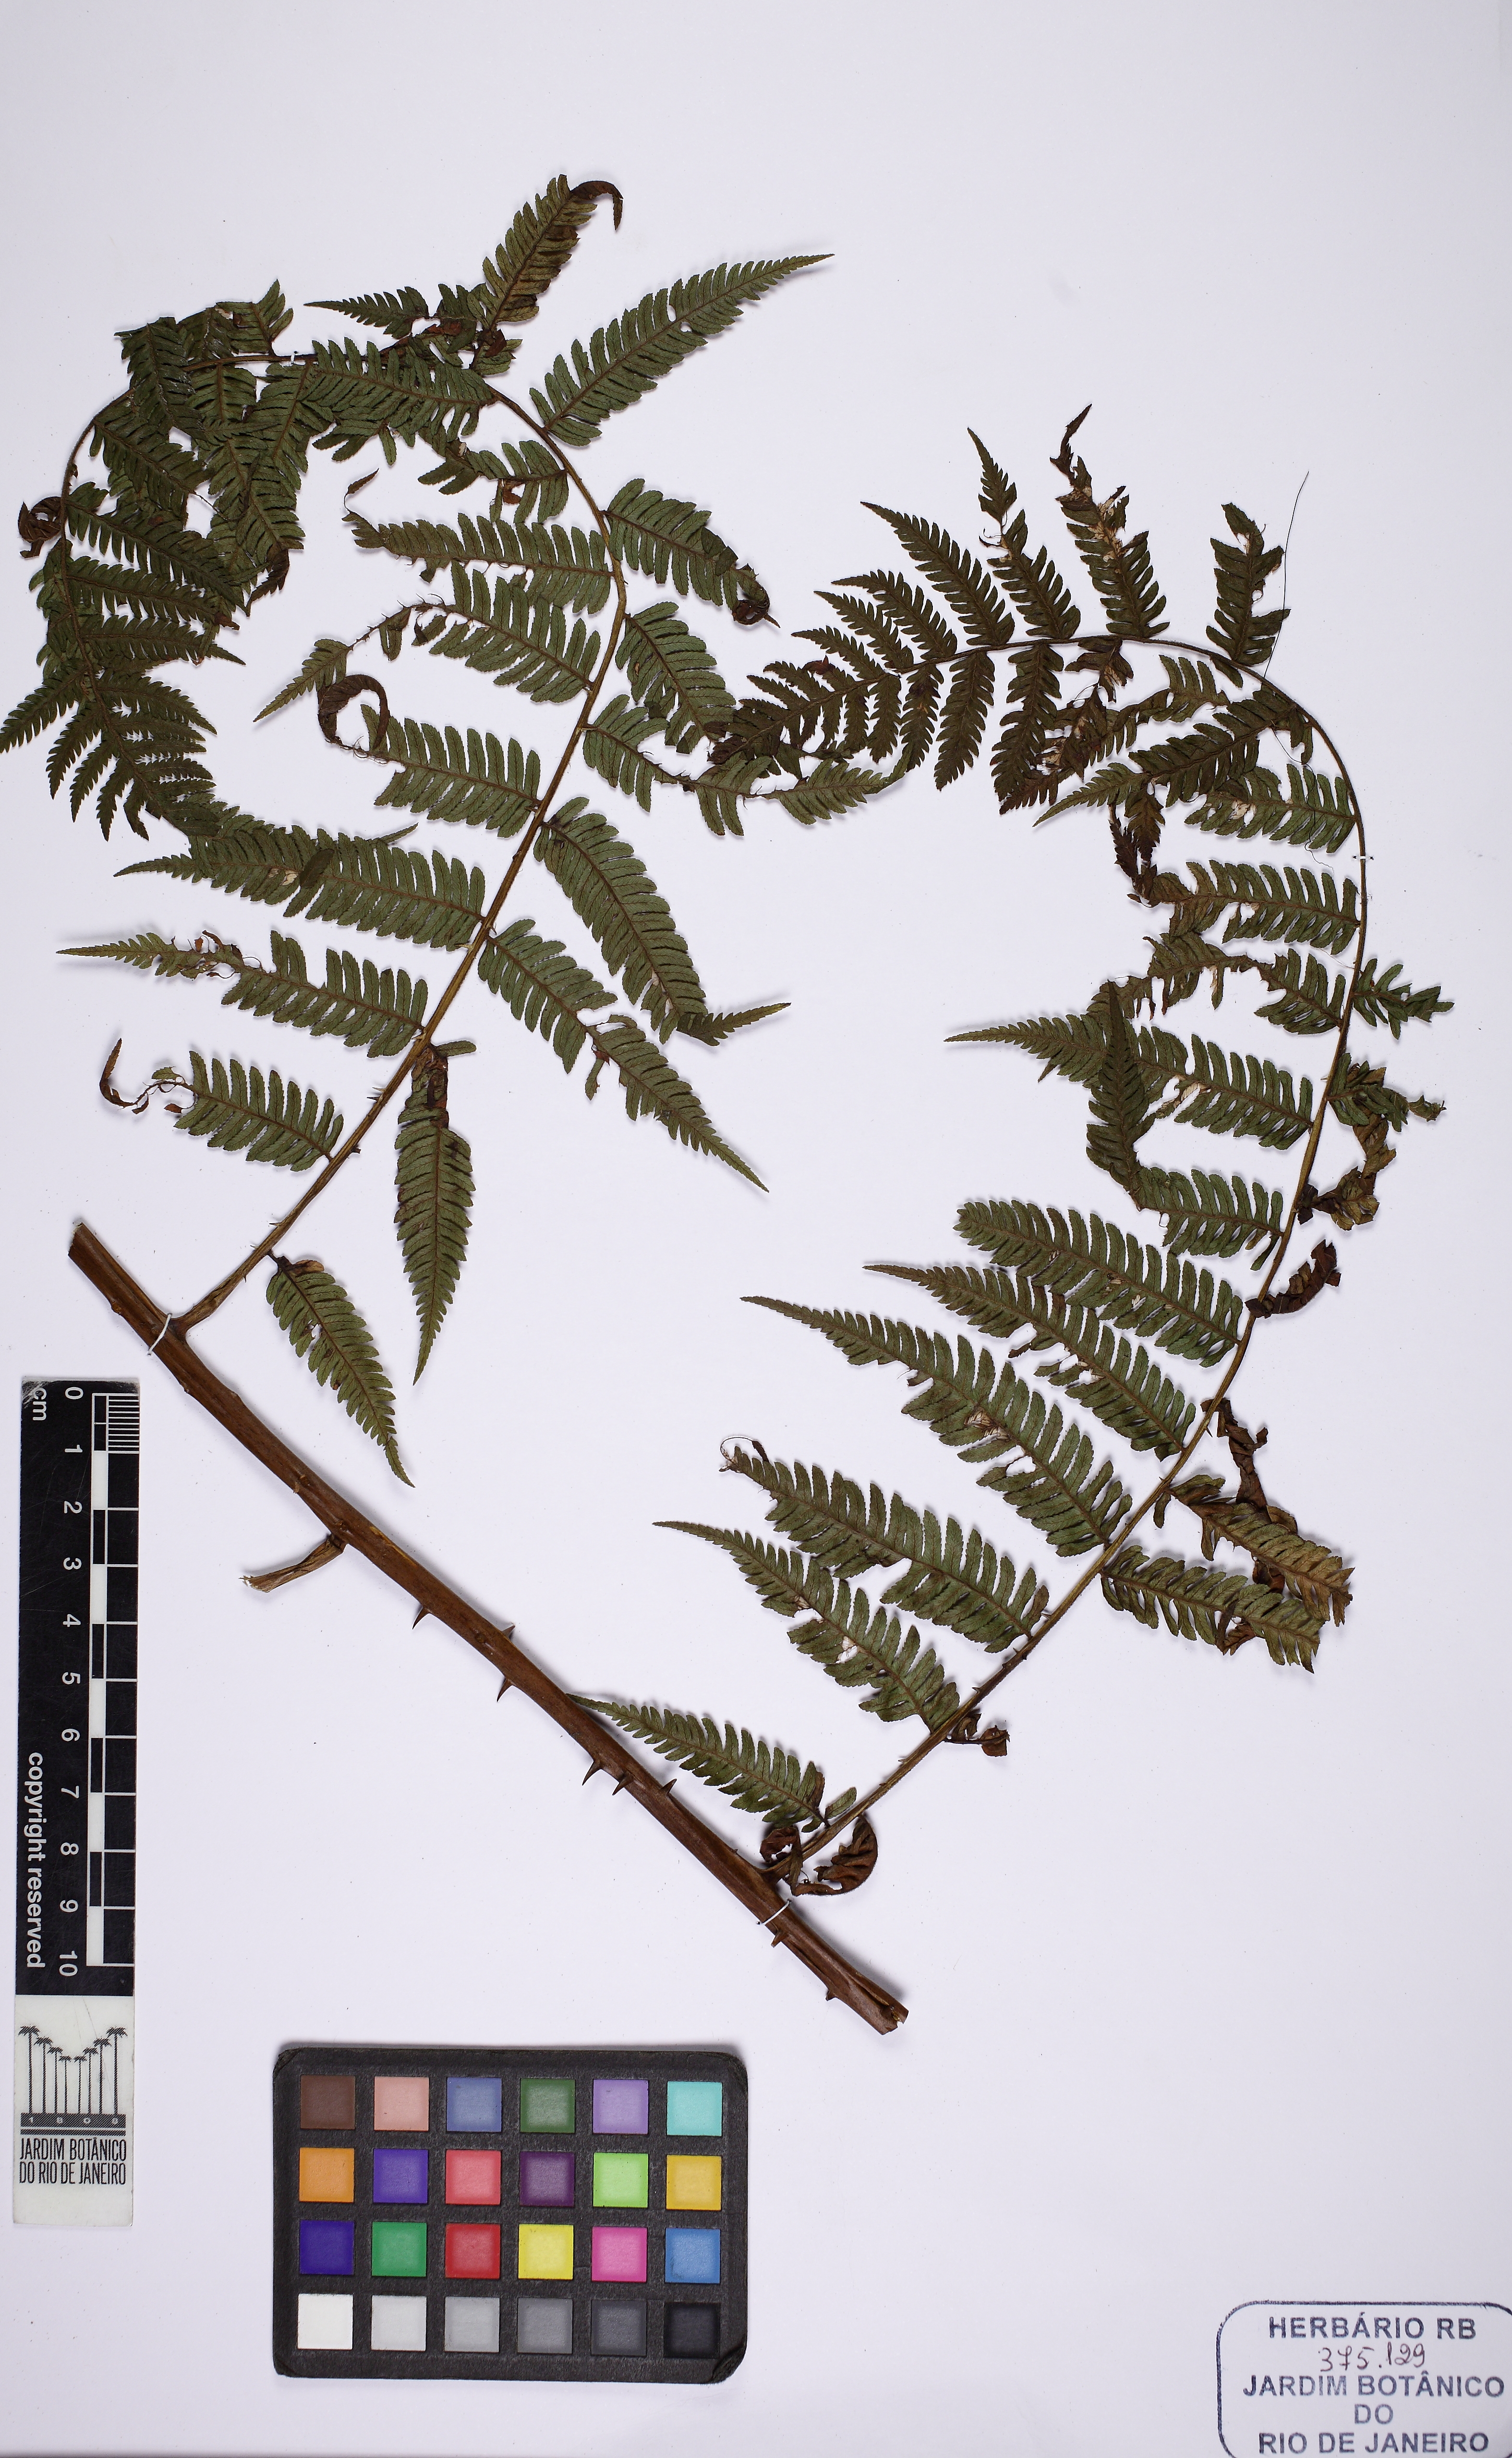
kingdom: Plantae
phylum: Tracheophyta
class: Polypodiopsida
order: Cyatheales
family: Cyatheaceae
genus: Cyathea
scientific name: Cyathea microdonta
